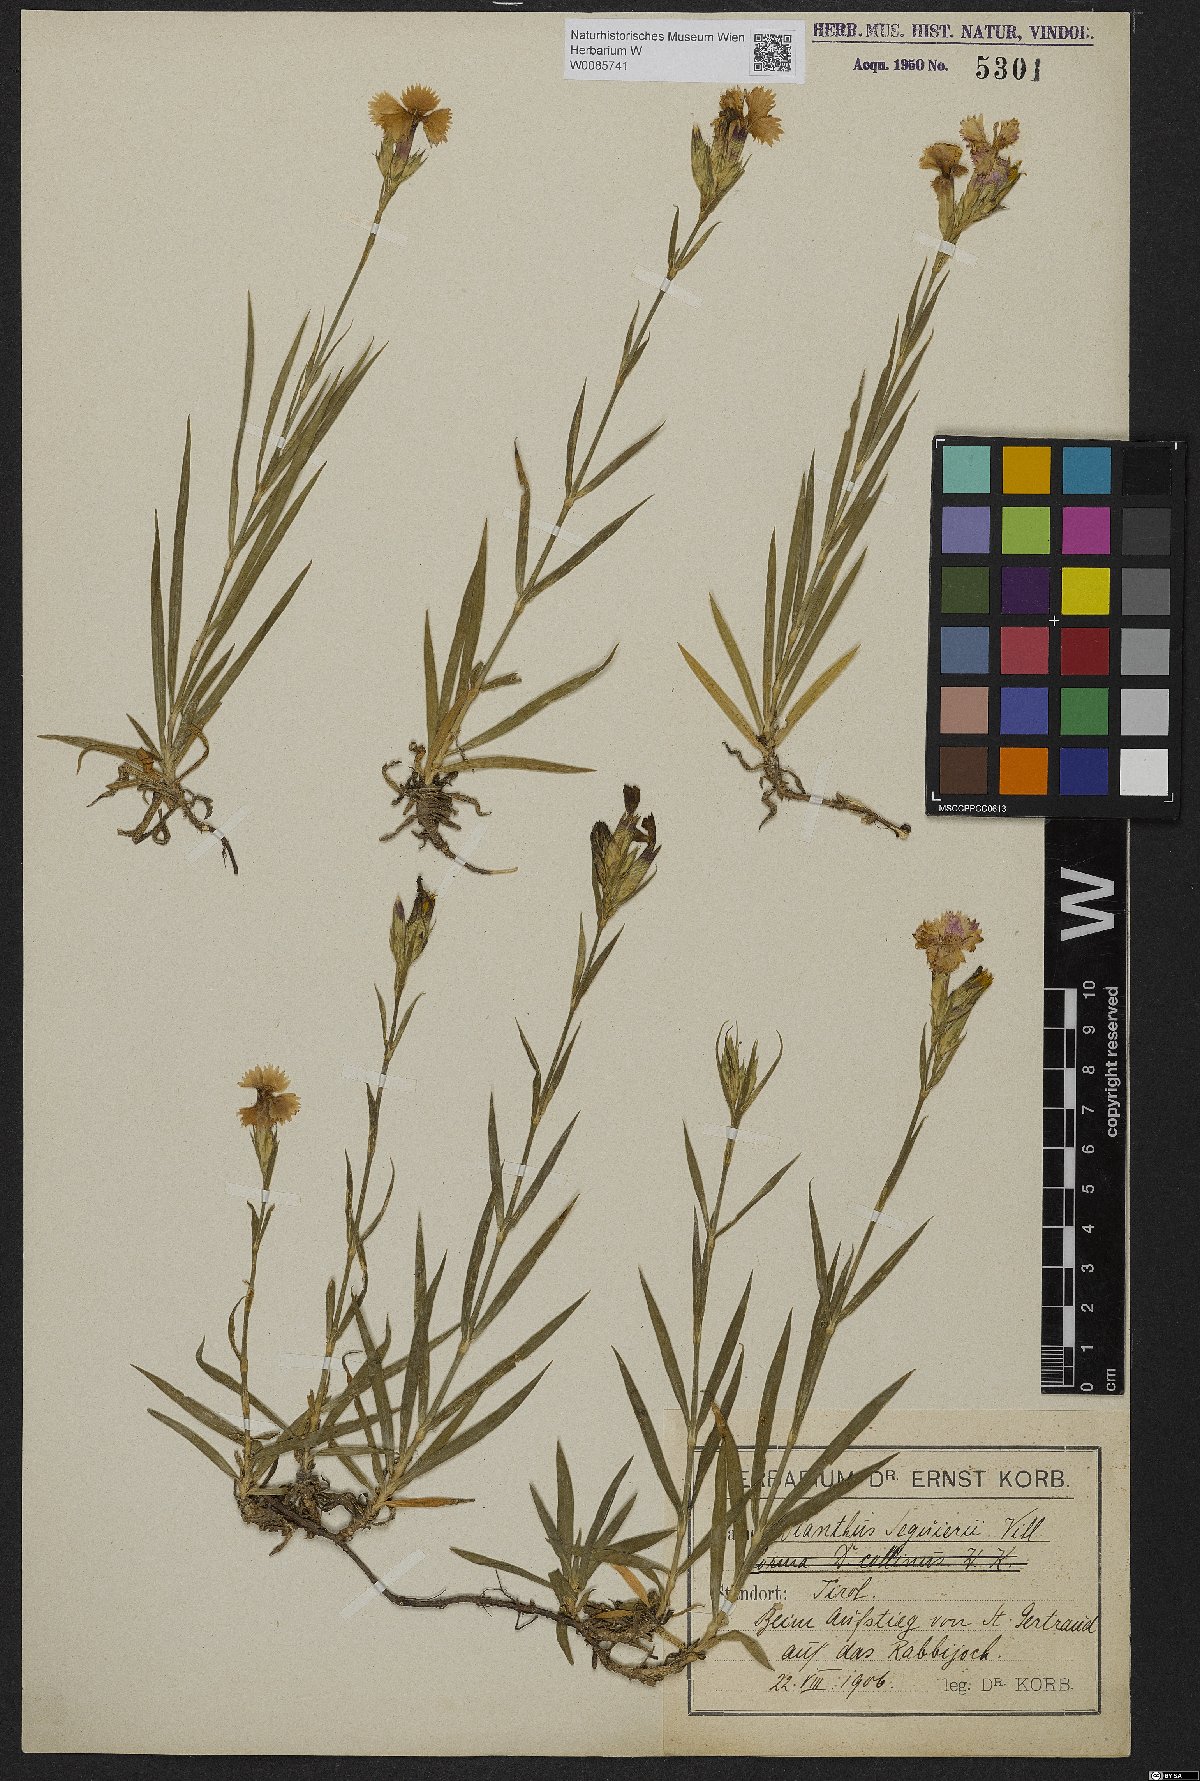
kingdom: Plantae
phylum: Tracheophyta
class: Magnoliopsida
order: Caryophyllales
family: Caryophyllaceae
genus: Dianthus
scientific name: Dianthus seguieri
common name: Ragged pink
